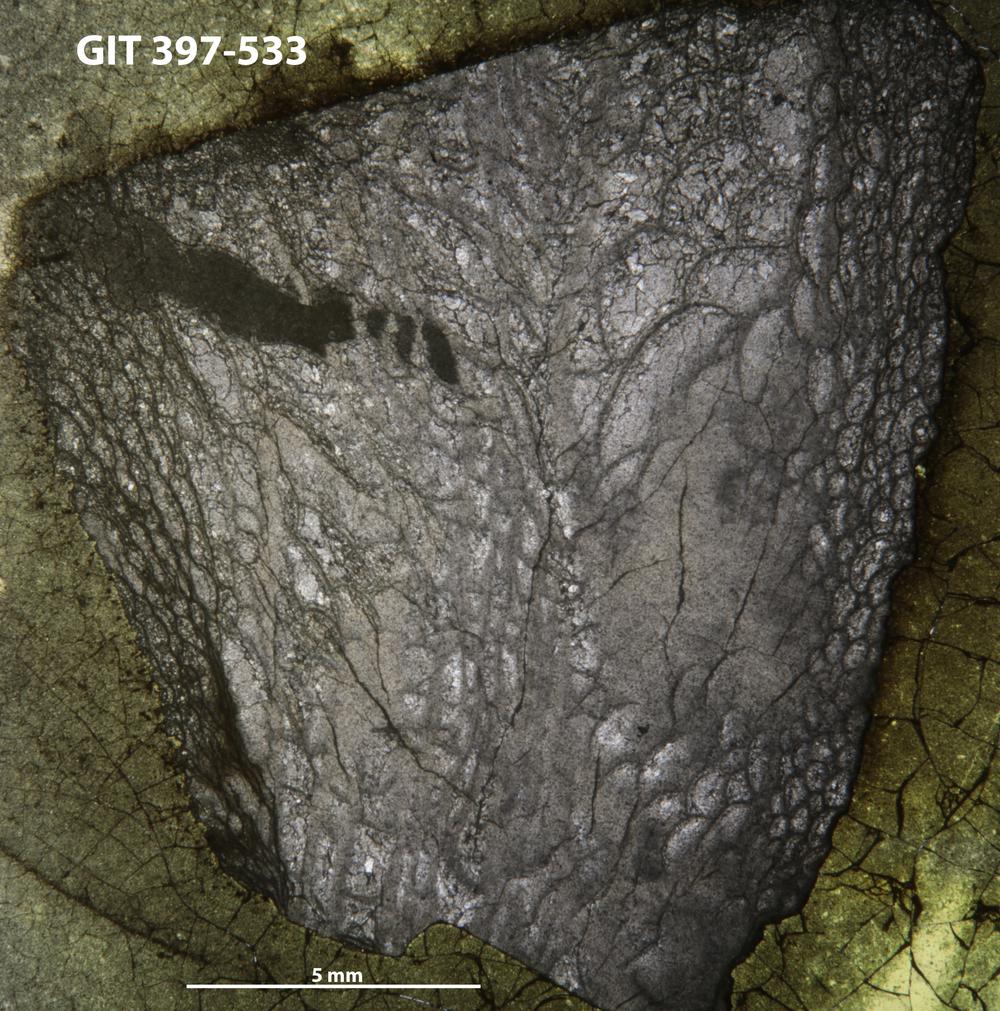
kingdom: Animalia
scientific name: Animalia
